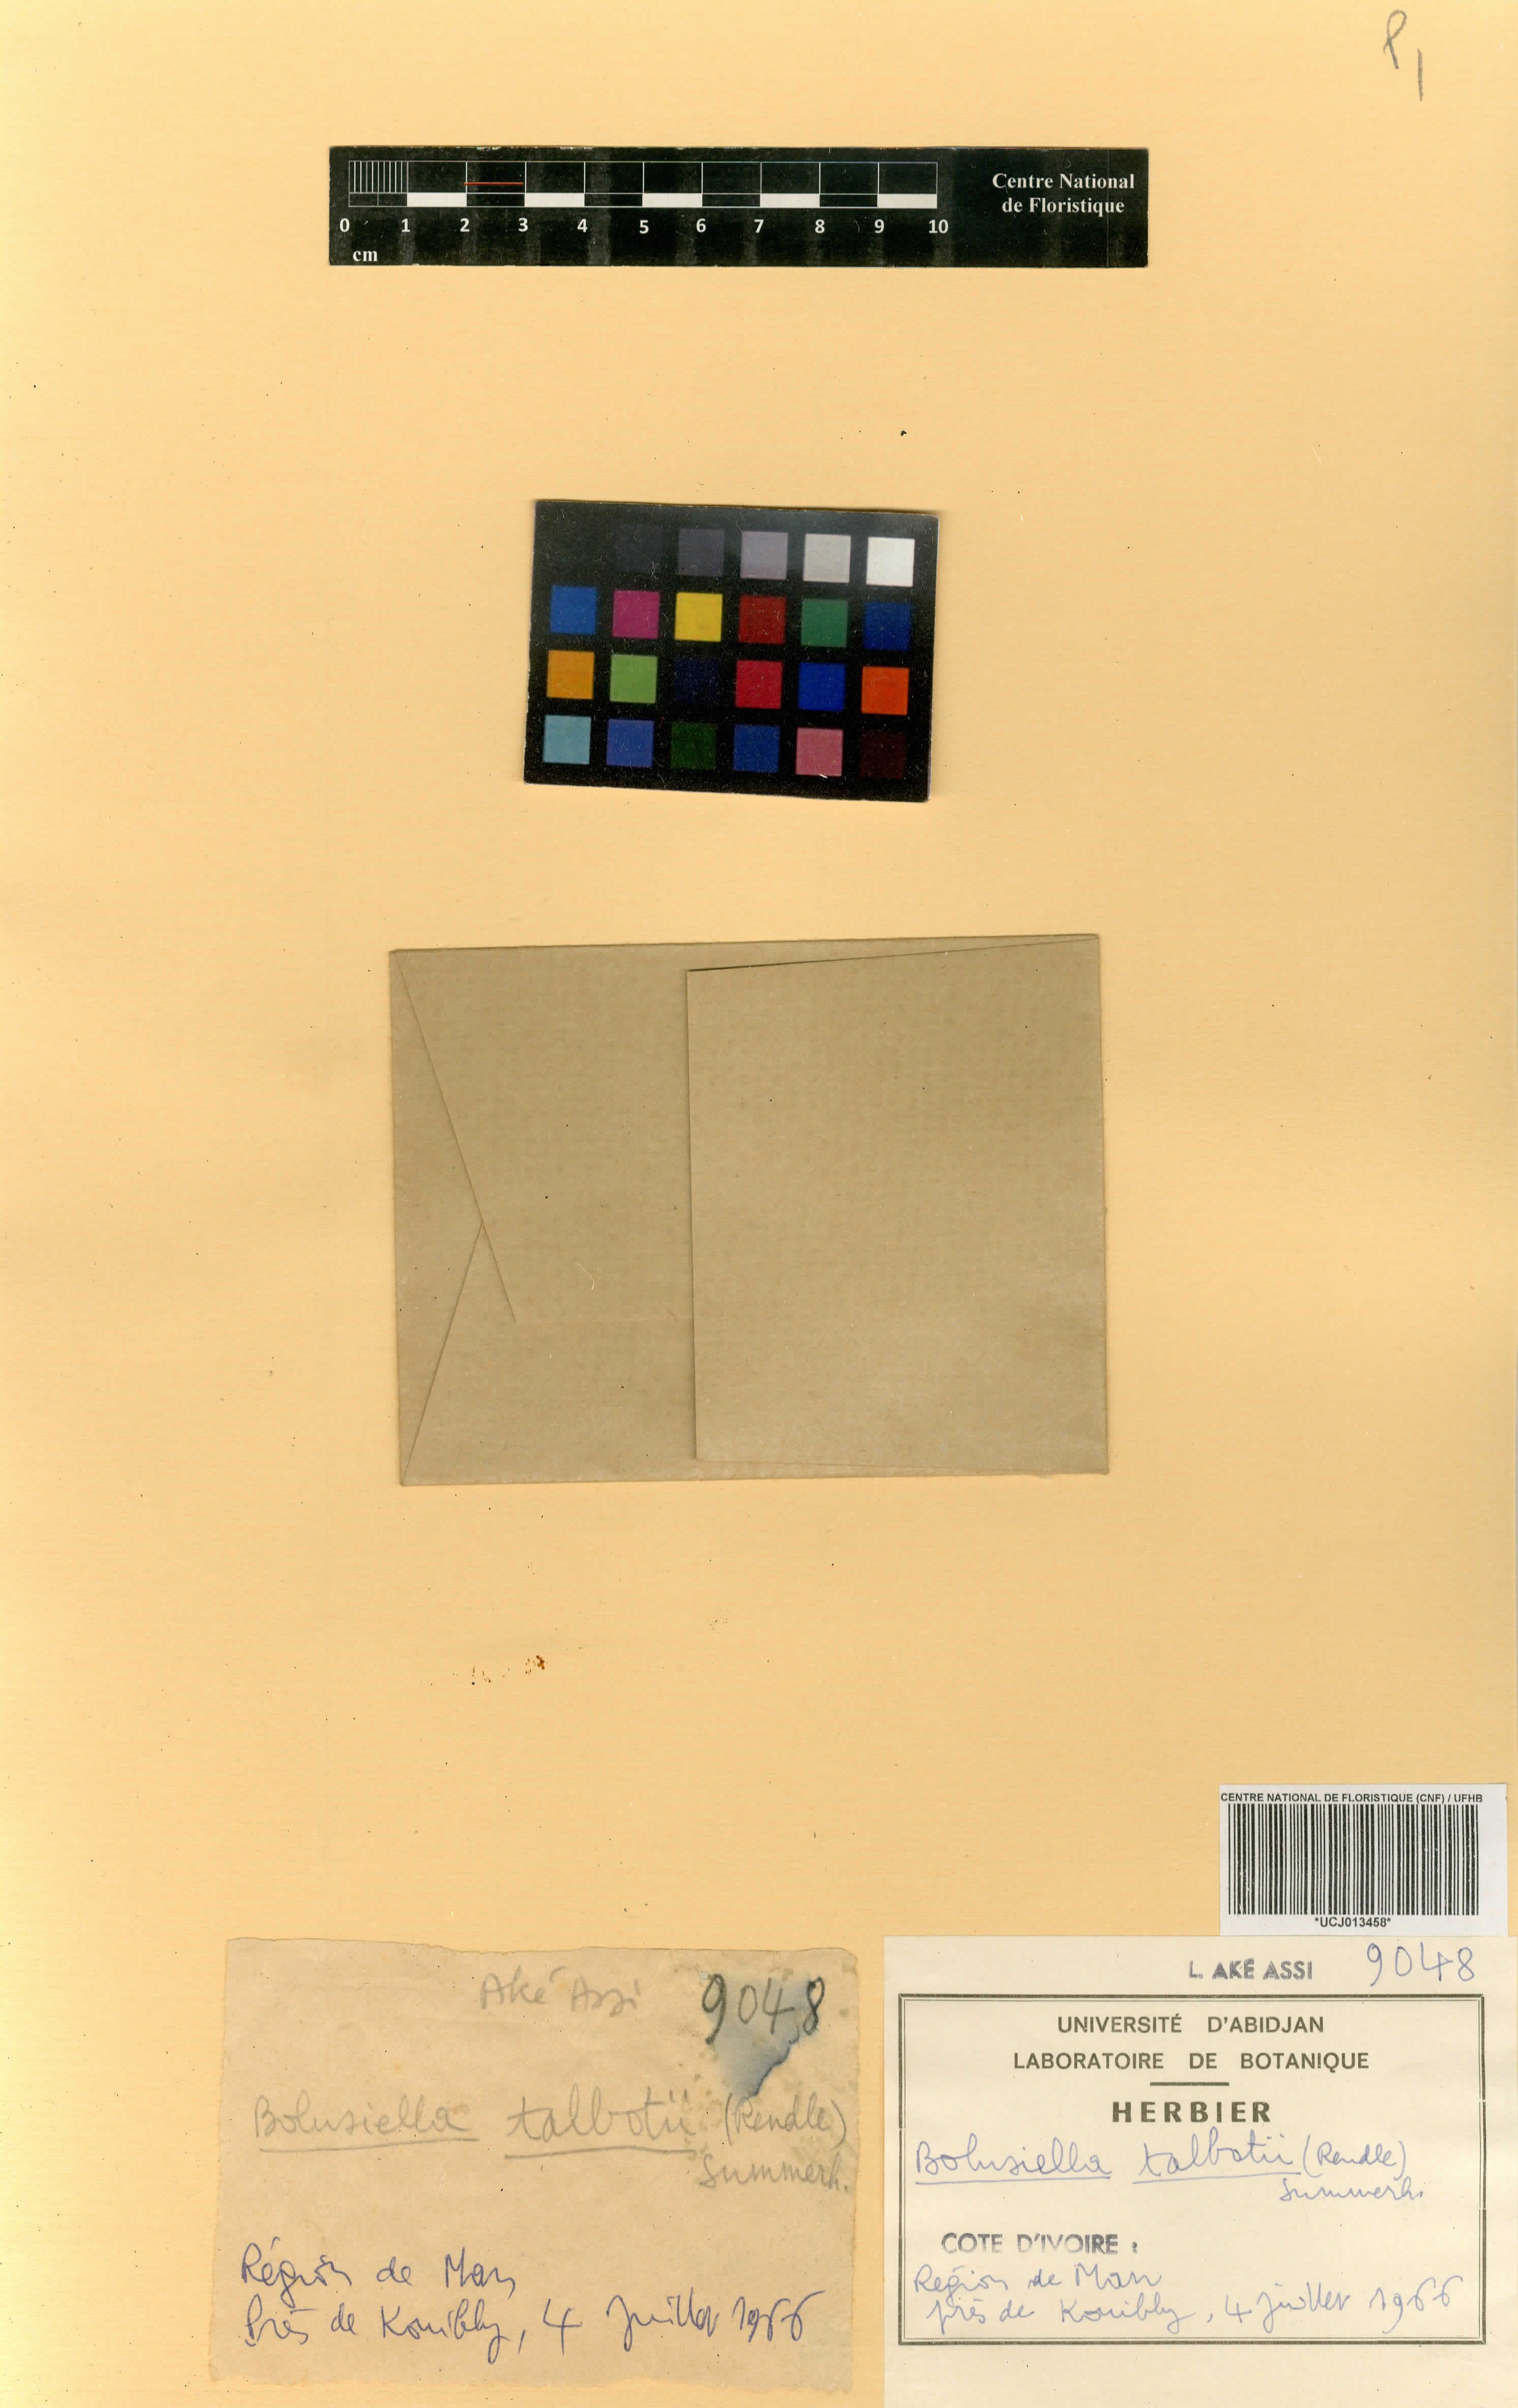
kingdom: Plantae
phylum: Tracheophyta
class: Liliopsida
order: Asparagales
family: Orchidaceae
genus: Bolusiella
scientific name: Bolusiella talbotii
